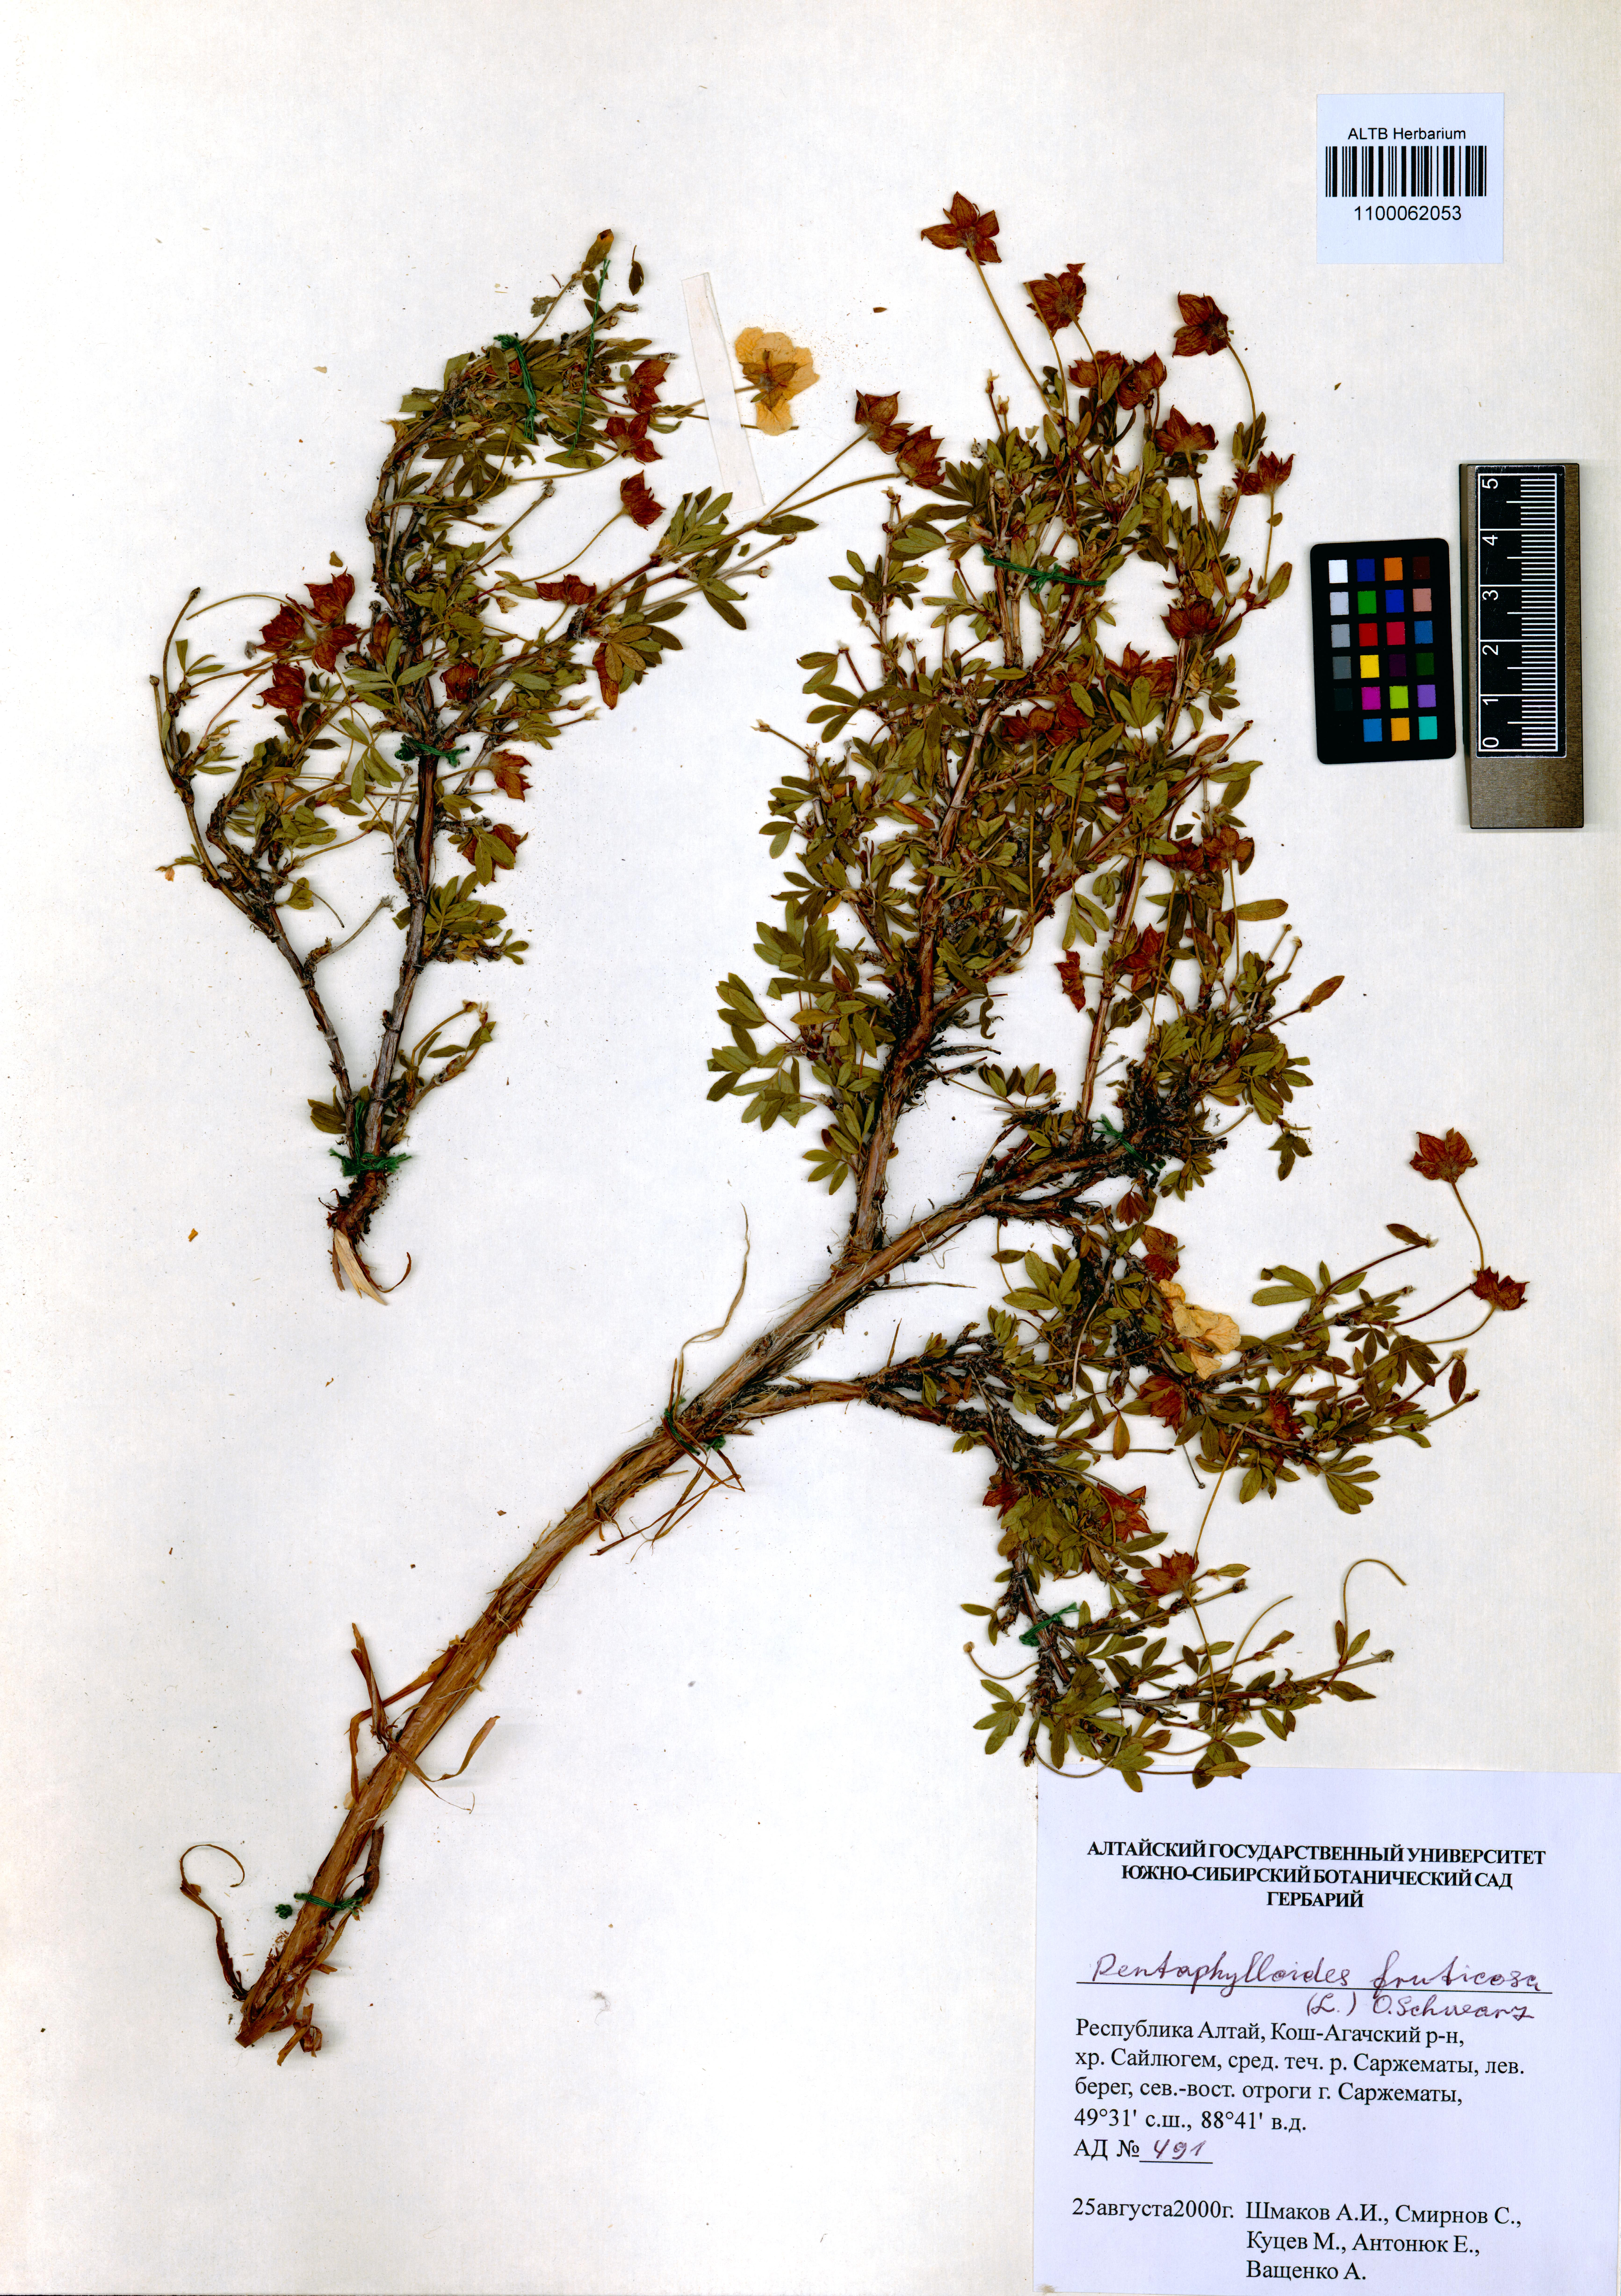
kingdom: Plantae
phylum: Tracheophyta
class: Magnoliopsida
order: Rosales
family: Rosaceae
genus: Dasiphora
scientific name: Dasiphora fruticosa
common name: Shrubby cinquefoil
